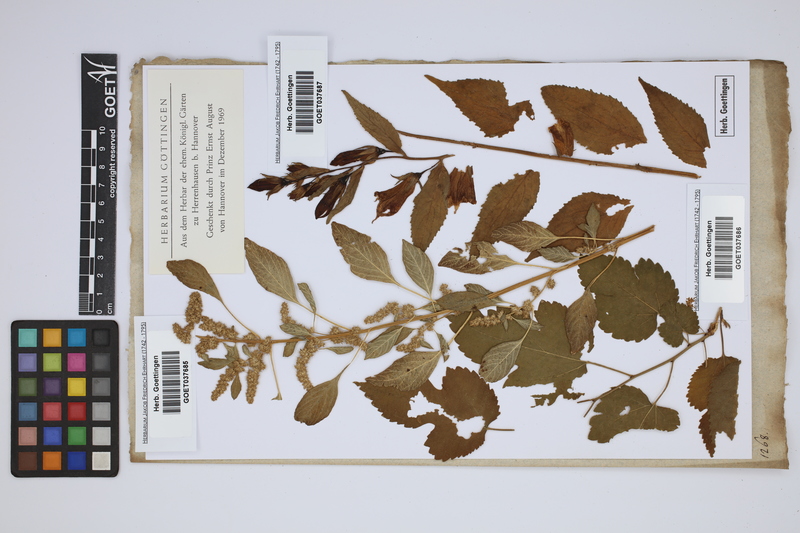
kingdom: Plantae
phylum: Tracheophyta
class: Magnoliopsida
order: Asterales
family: Campanulaceae
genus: Campanula
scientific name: Campanula latifolia
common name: Giant bellflower
